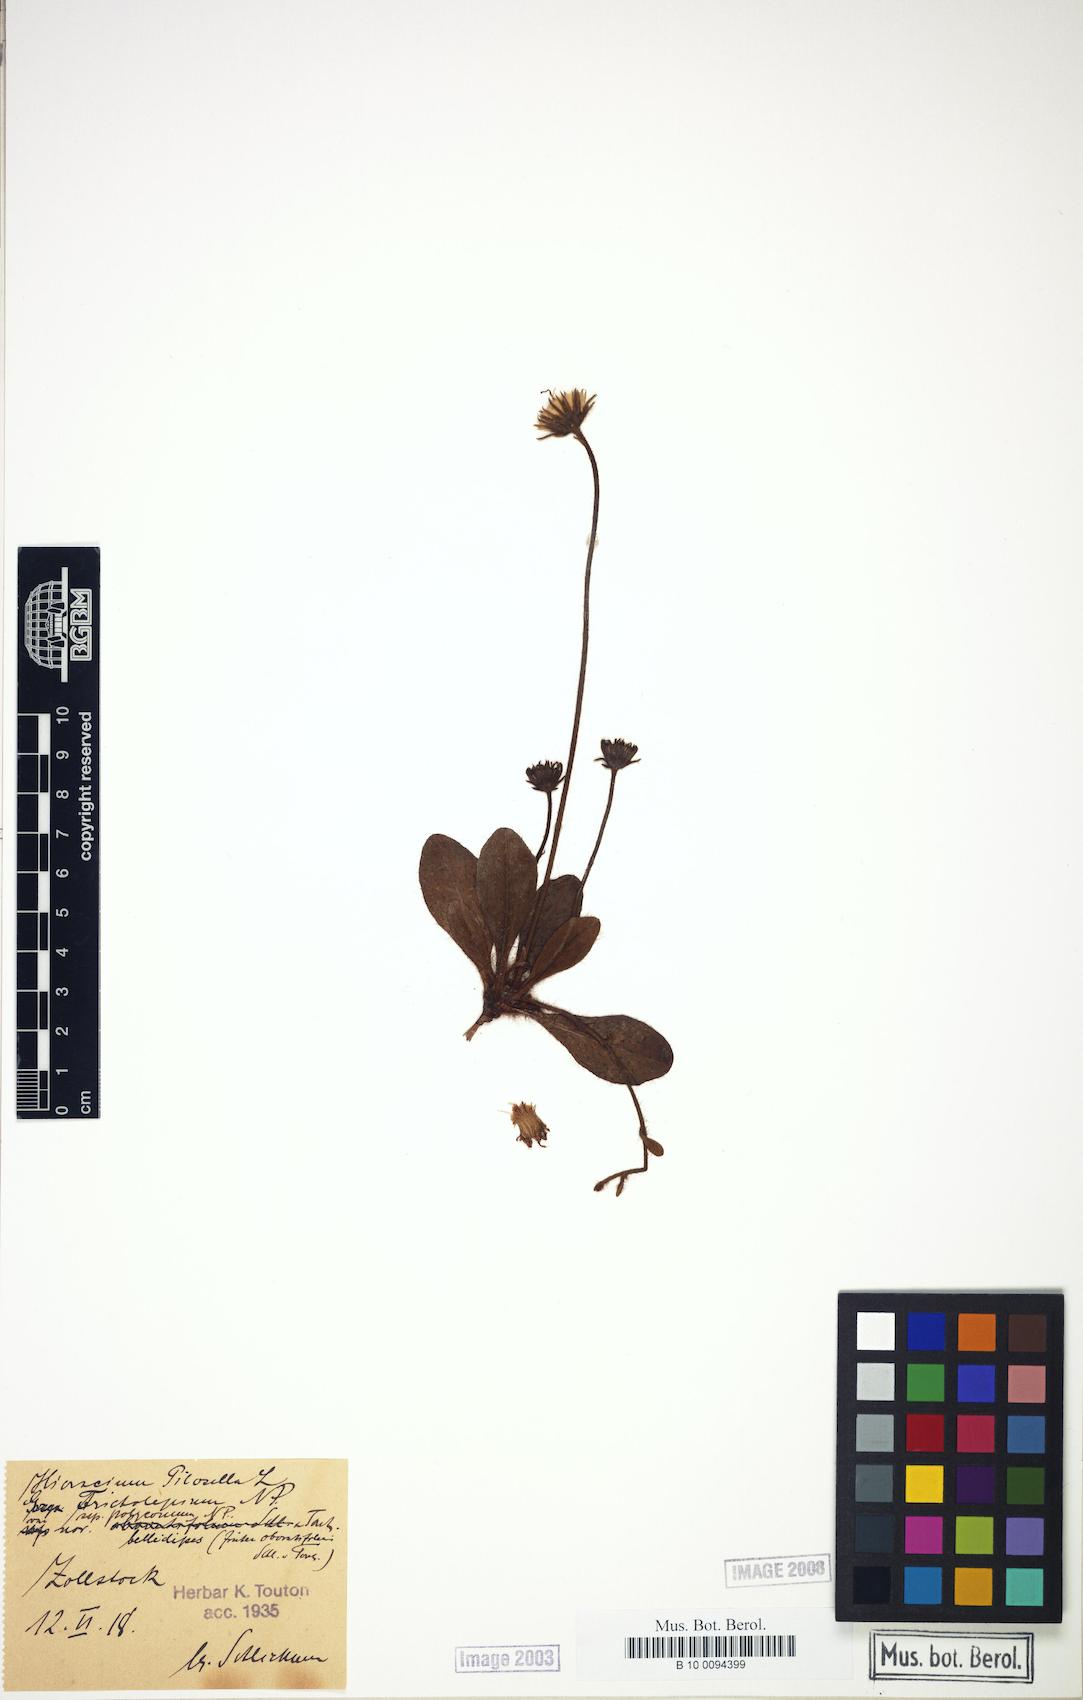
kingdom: Plantae
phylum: Tracheophyta
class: Magnoliopsida
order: Asterales
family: Asteraceae
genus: Pilosella
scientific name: Pilosella officinarum
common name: Mouse-ear hawkweed
